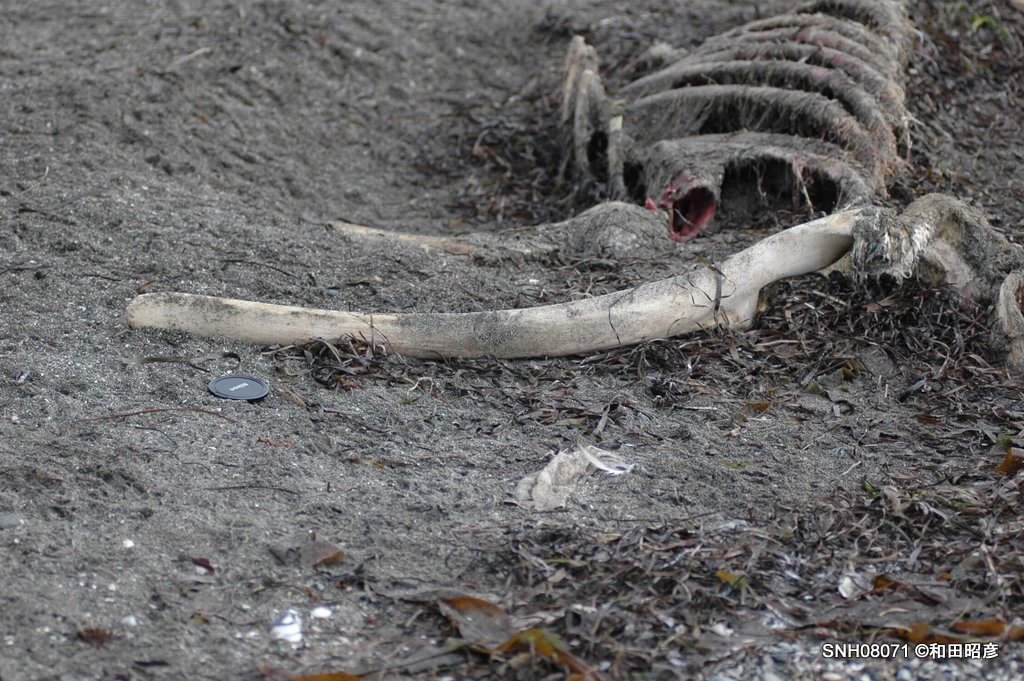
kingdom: Animalia
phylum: Chordata
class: Mammalia
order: Cetacea
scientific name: Cetacea
